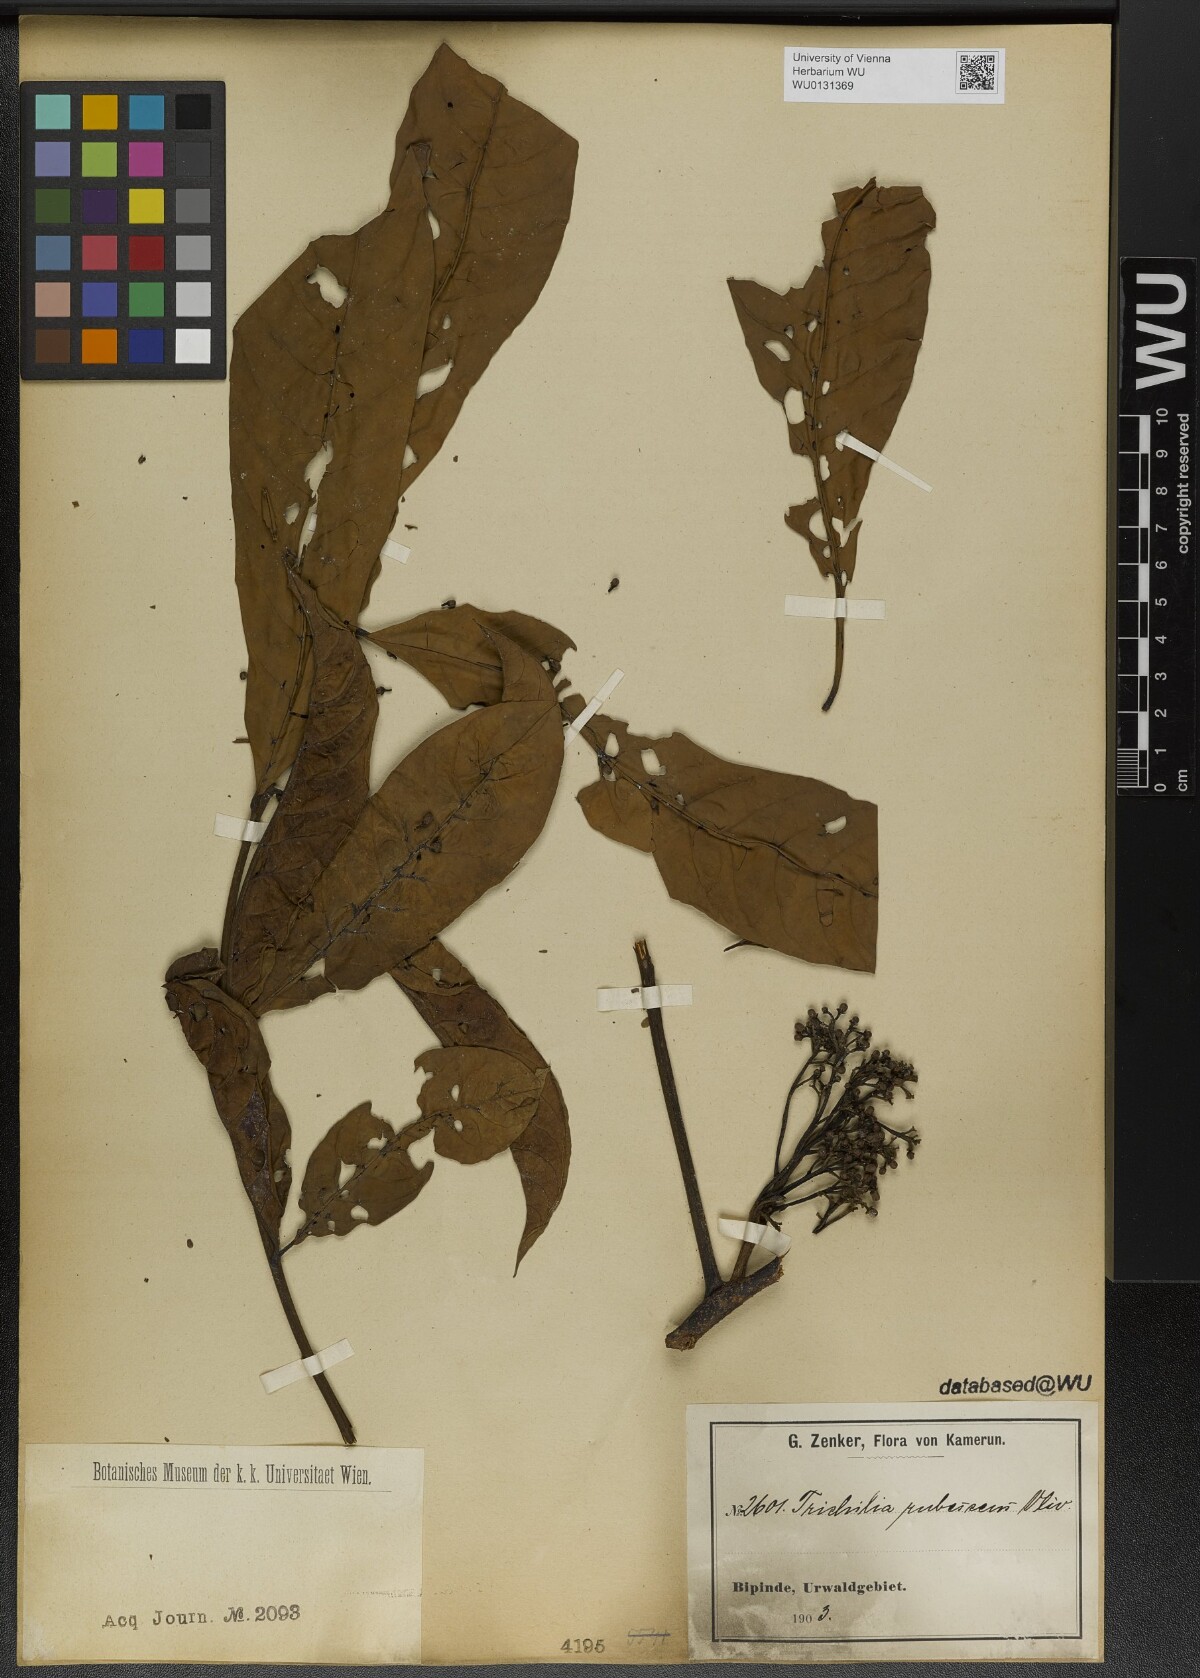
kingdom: Plantae
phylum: Tracheophyta
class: Magnoliopsida
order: Sapindales
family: Meliaceae
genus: Trichilia
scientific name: Trichilia rubescens
